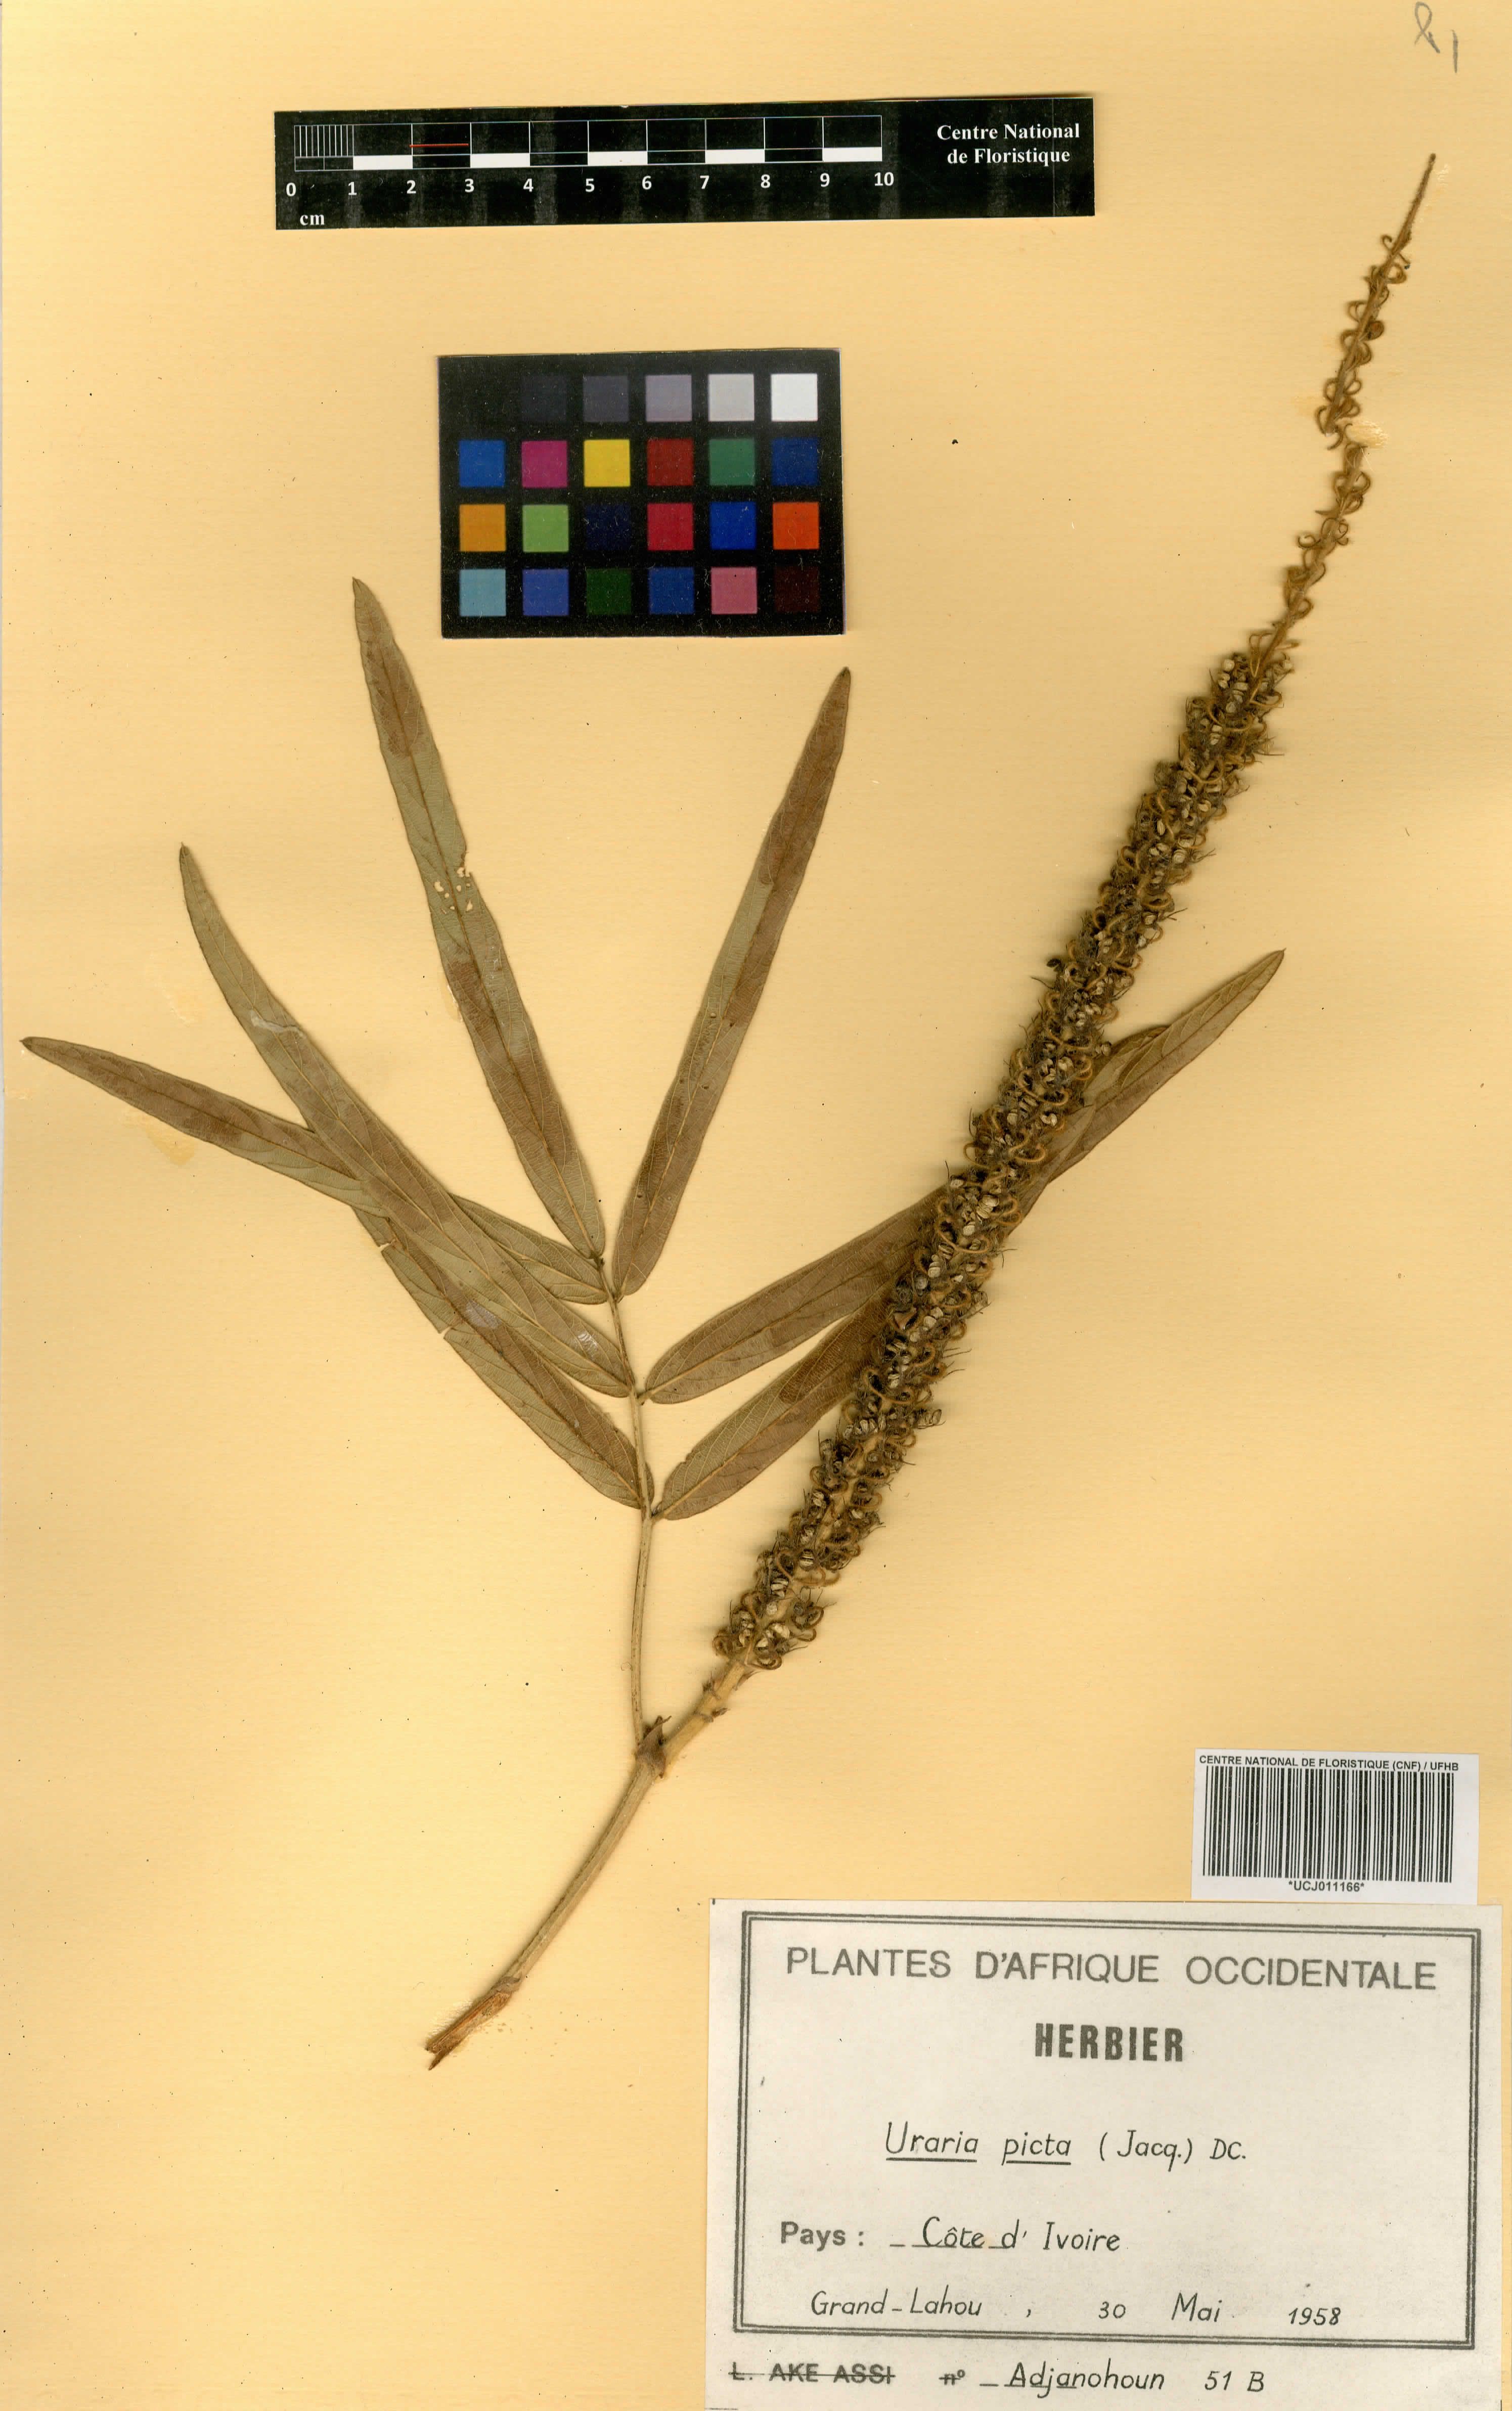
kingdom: Plantae
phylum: Tracheophyta
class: Magnoliopsida
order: Fabales
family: Fabaceae
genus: Uraria
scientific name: Uraria picta
